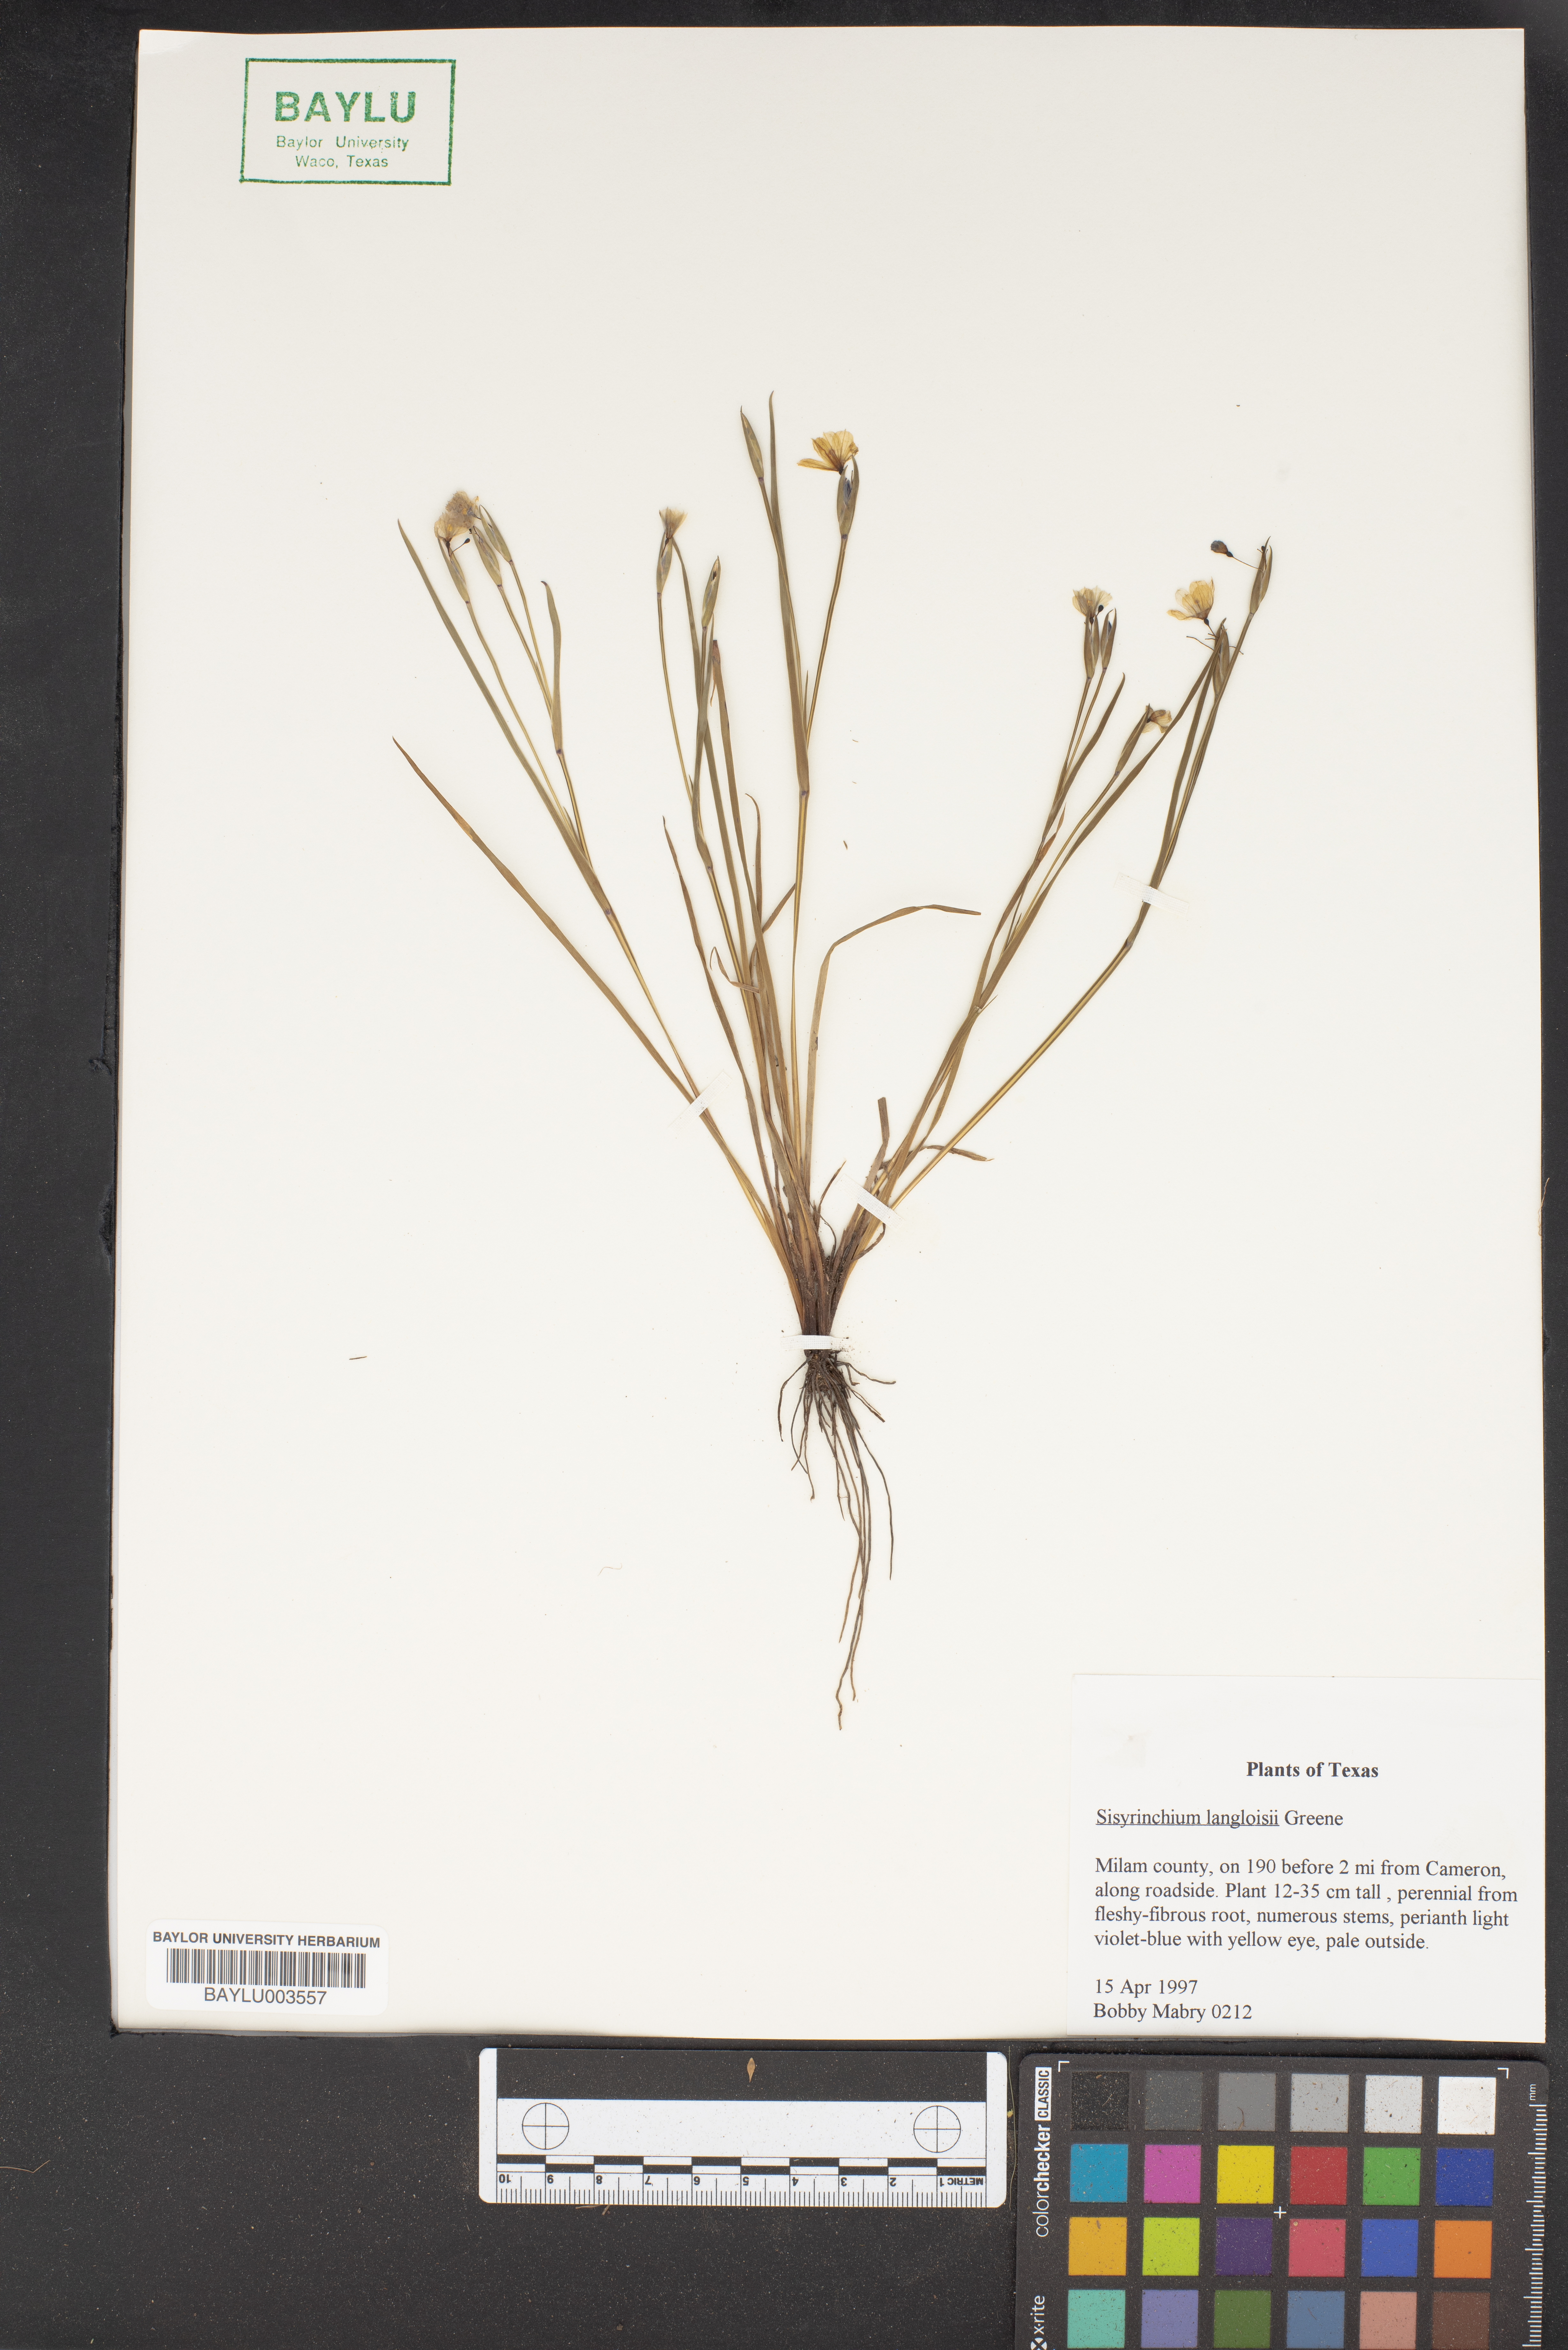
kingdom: Plantae
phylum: Tracheophyta
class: Liliopsida
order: Asparagales
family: Iridaceae
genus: Sisyrinchium
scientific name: Sisyrinchium langloisii
